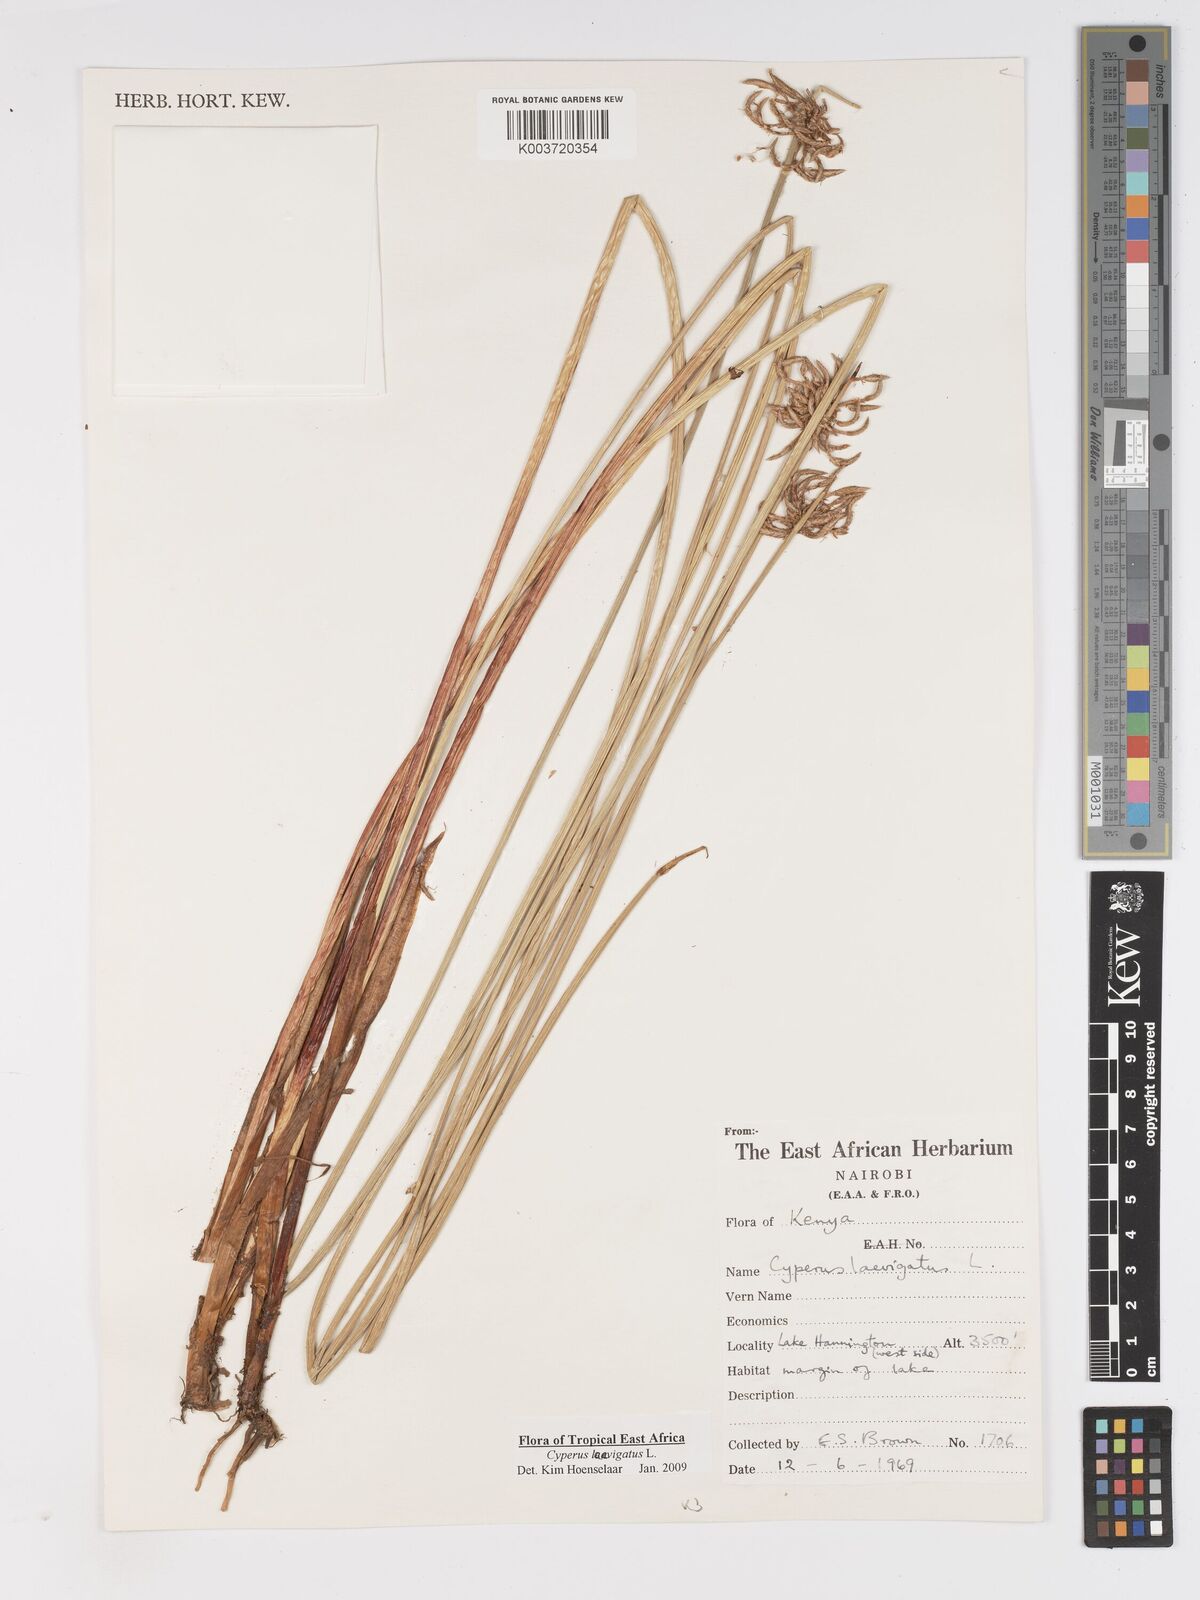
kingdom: Plantae
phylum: Tracheophyta
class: Liliopsida
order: Poales
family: Cyperaceae
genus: Cyperus
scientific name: Cyperus laevigatus
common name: Smooth flat sedge
